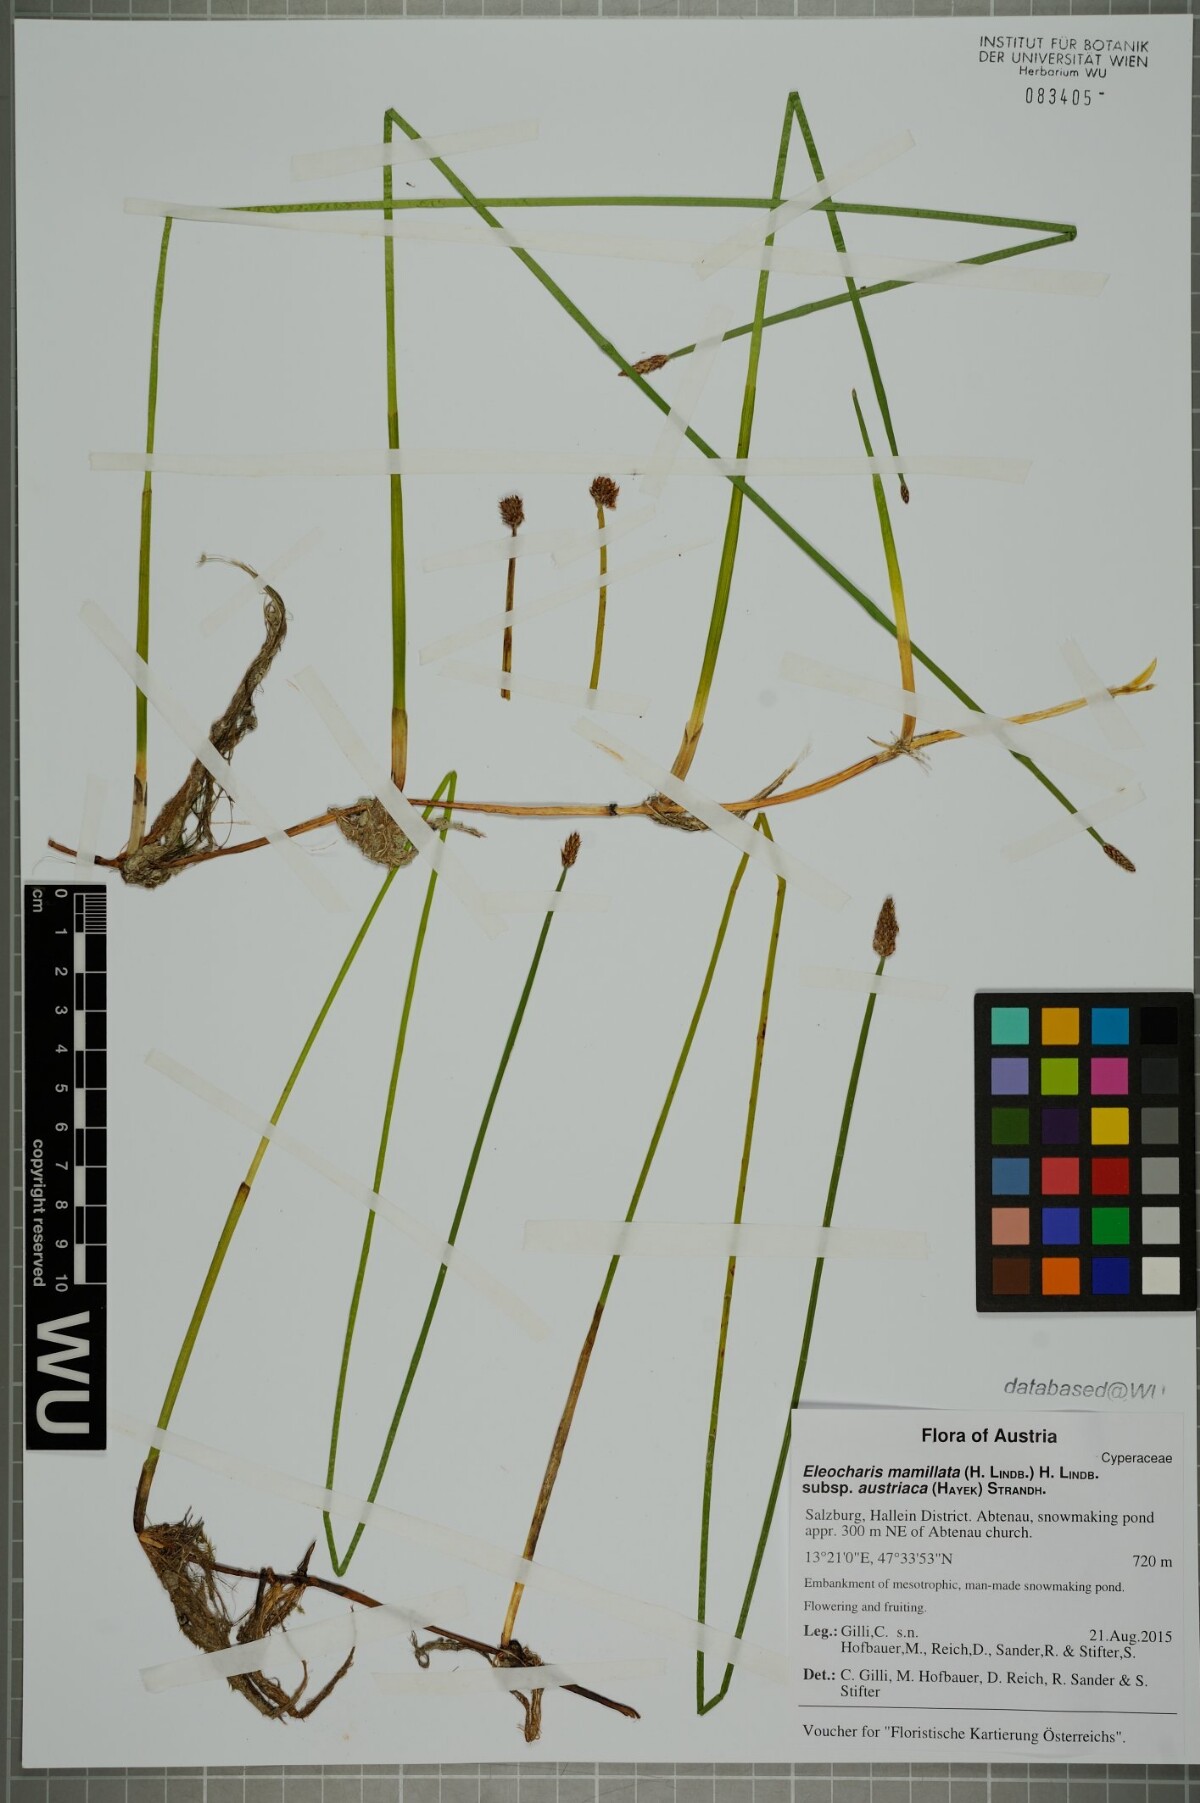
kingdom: Plantae
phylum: Tracheophyta
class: Liliopsida
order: Poales
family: Cyperaceae
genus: Eleocharis
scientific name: Eleocharis mamillata
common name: Northern spike-rush
